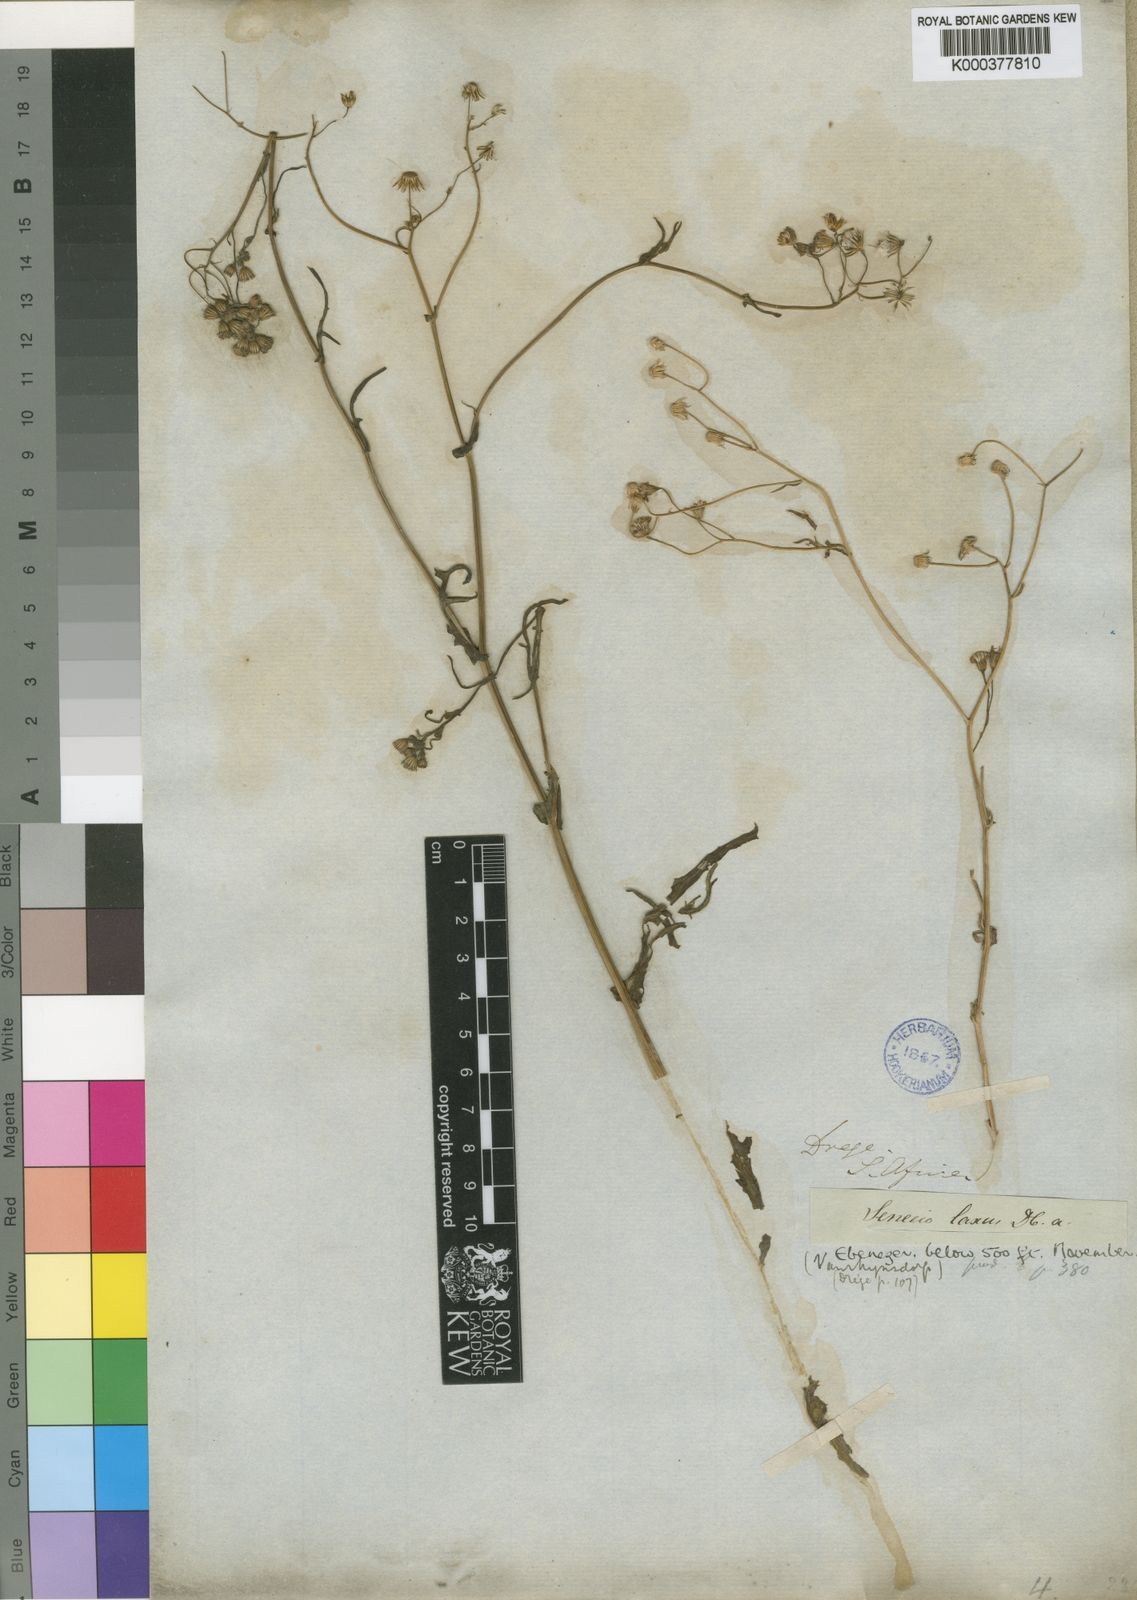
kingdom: Plantae
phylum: Tracheophyta
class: Magnoliopsida
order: Asterales
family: Asteraceae
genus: Senecio
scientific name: Senecio laxus
